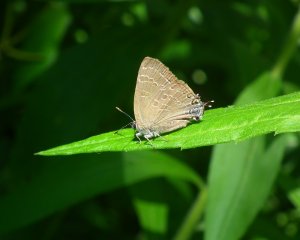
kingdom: Animalia
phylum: Arthropoda
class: Insecta
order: Lepidoptera
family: Lycaenidae
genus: Strymon
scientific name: Strymon caryaevorus
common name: Hickory Hairstreak
